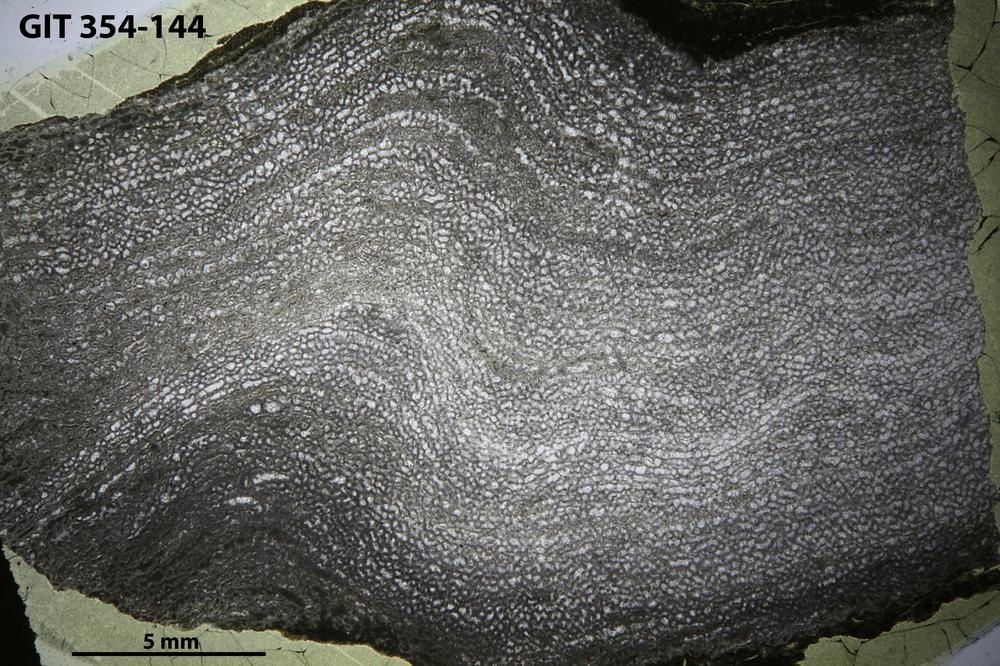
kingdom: Animalia
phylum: Porifera
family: Clathrodictyidae
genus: Clathrodictyon
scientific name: Clathrodictyon boreale
